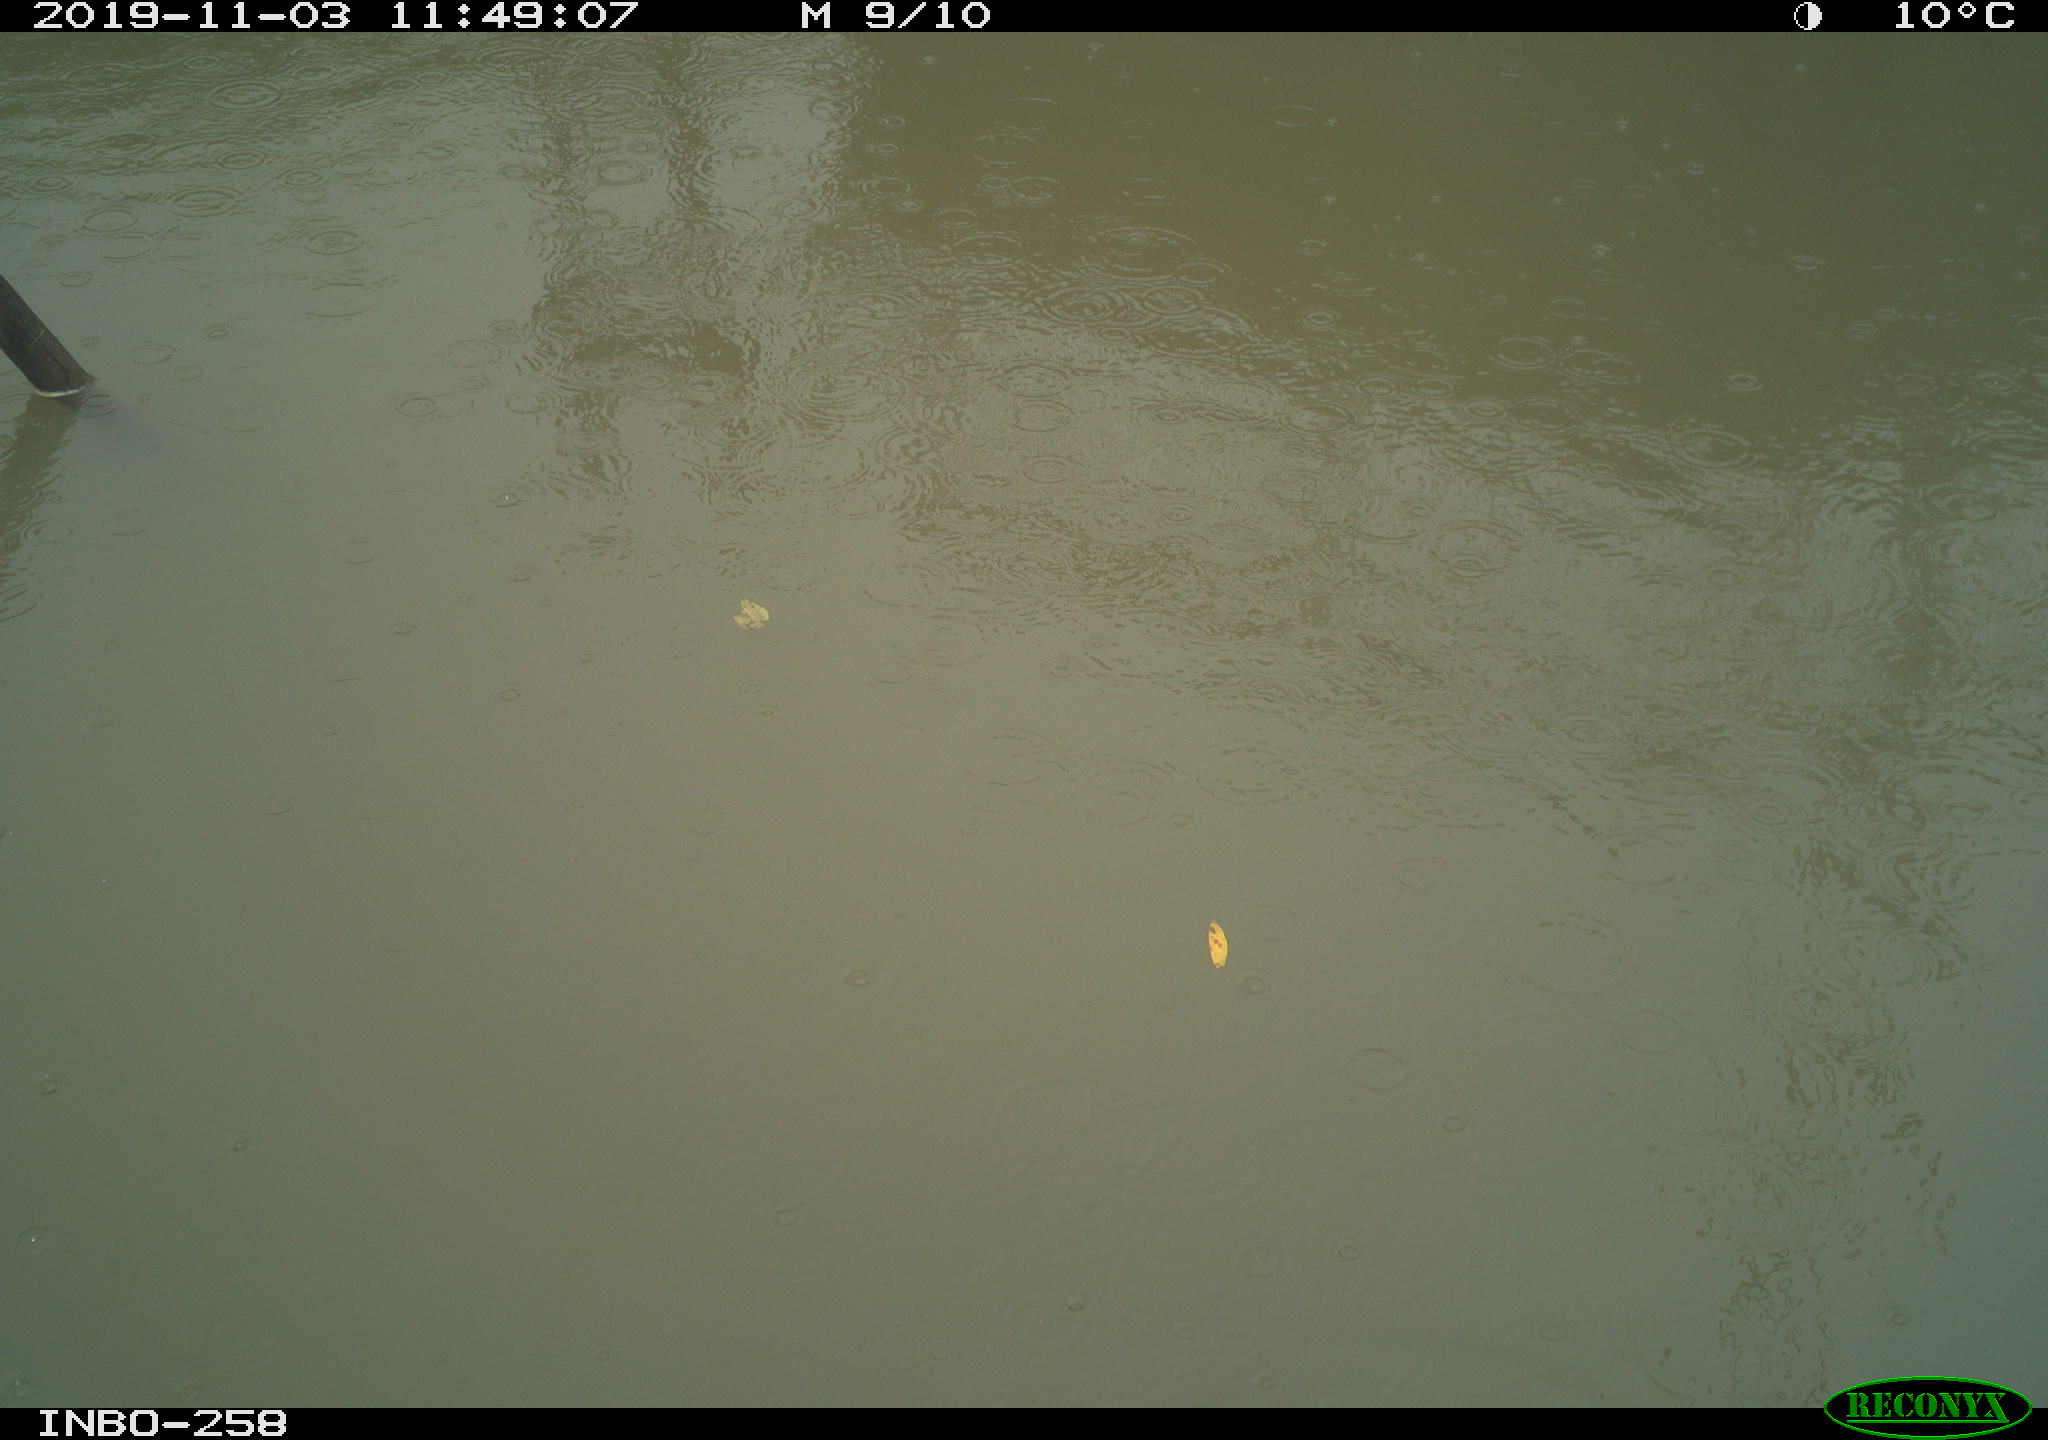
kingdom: Animalia
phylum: Chordata
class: Aves
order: Gruiformes
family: Rallidae
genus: Gallinula
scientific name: Gallinula chloropus
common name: Common moorhen
